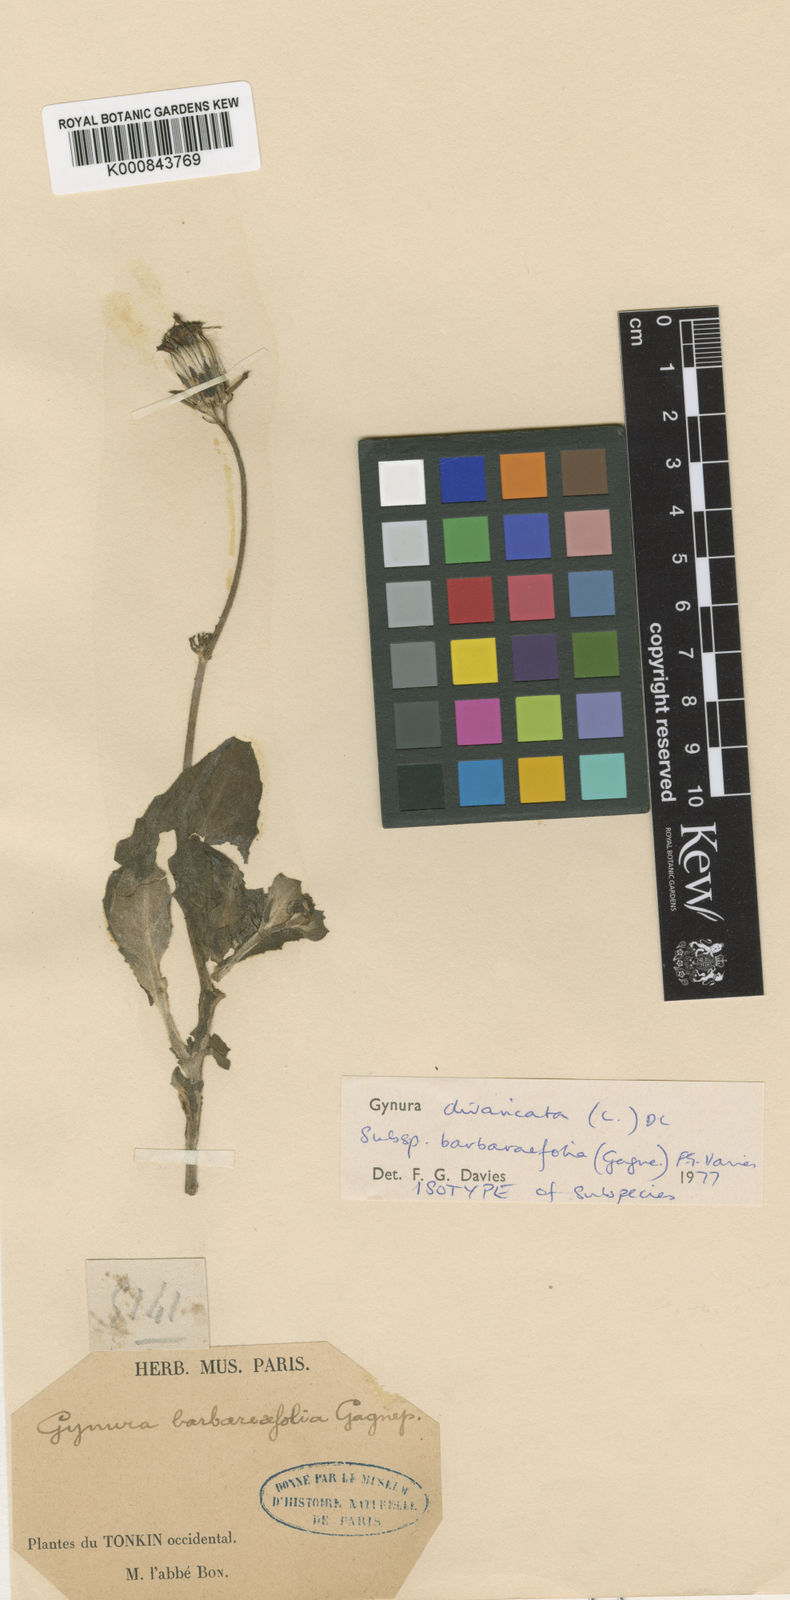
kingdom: Plantae
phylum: Tracheophyta
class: Magnoliopsida
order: Asterales
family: Asteraceae
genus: Gynura
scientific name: Gynura divaricata
